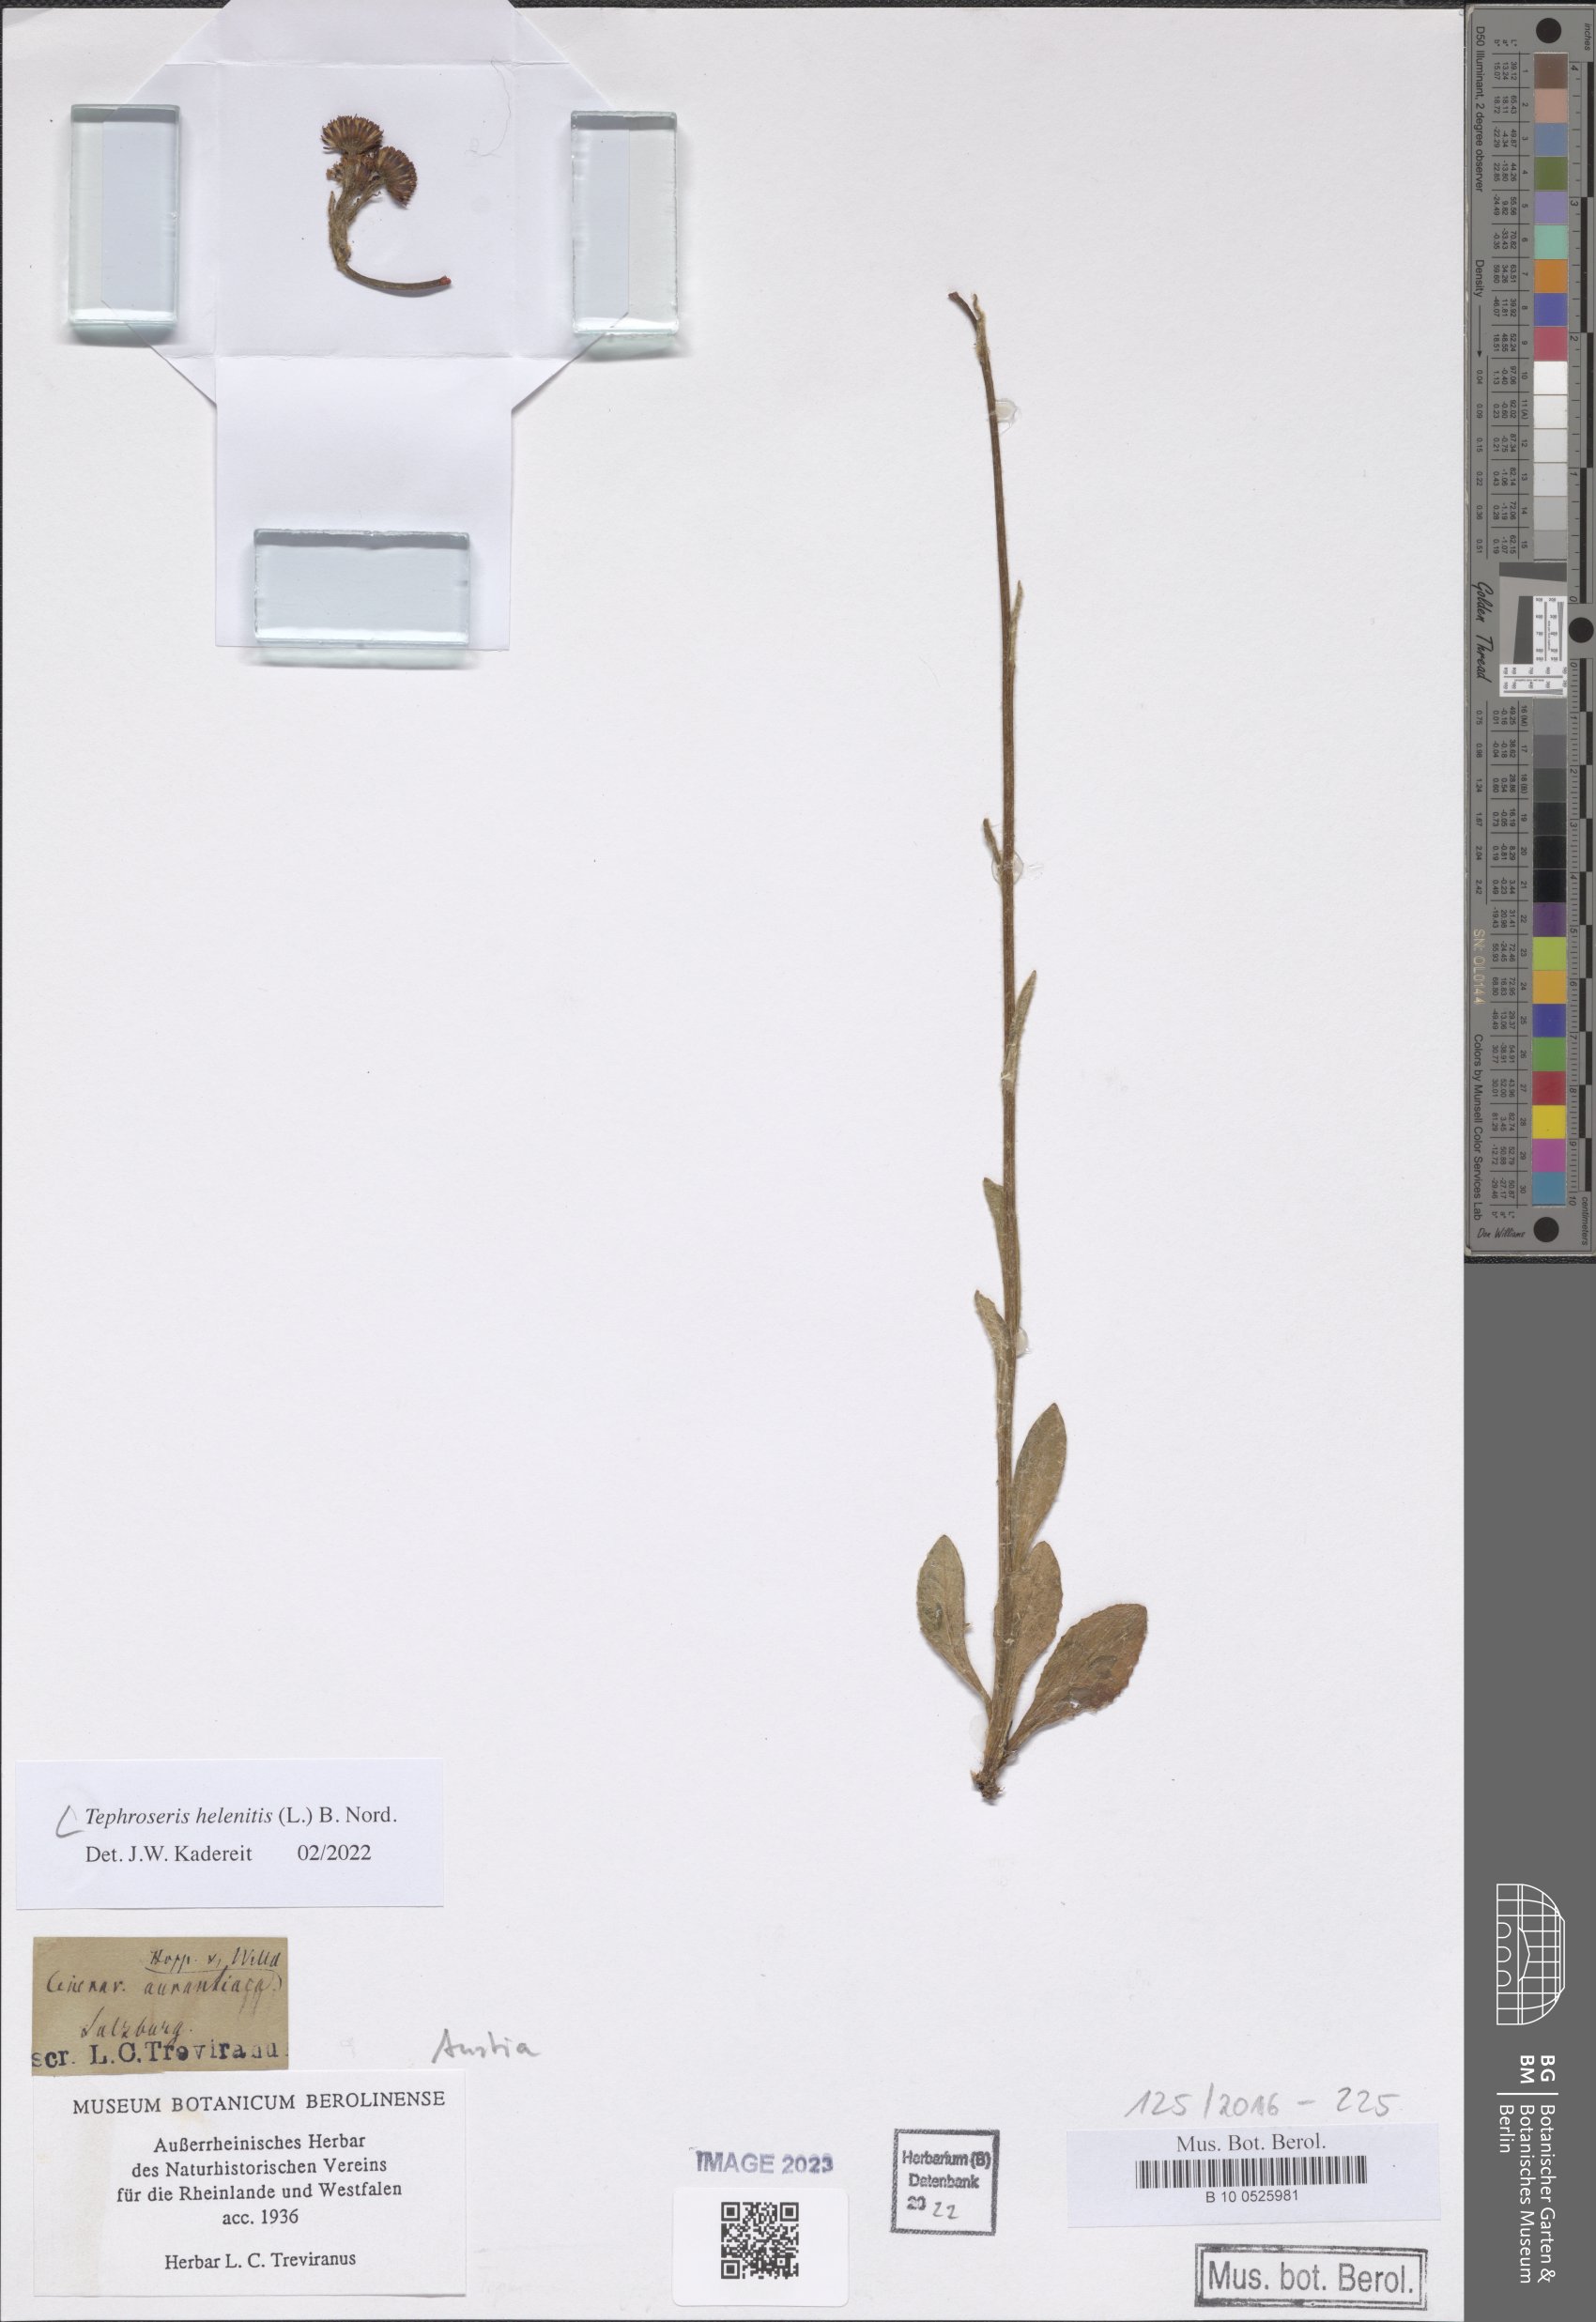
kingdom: Plantae
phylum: Tracheophyta
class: Magnoliopsida
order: Asterales
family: Asteraceae
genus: Tephroseris
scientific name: Tephroseris helenitis
